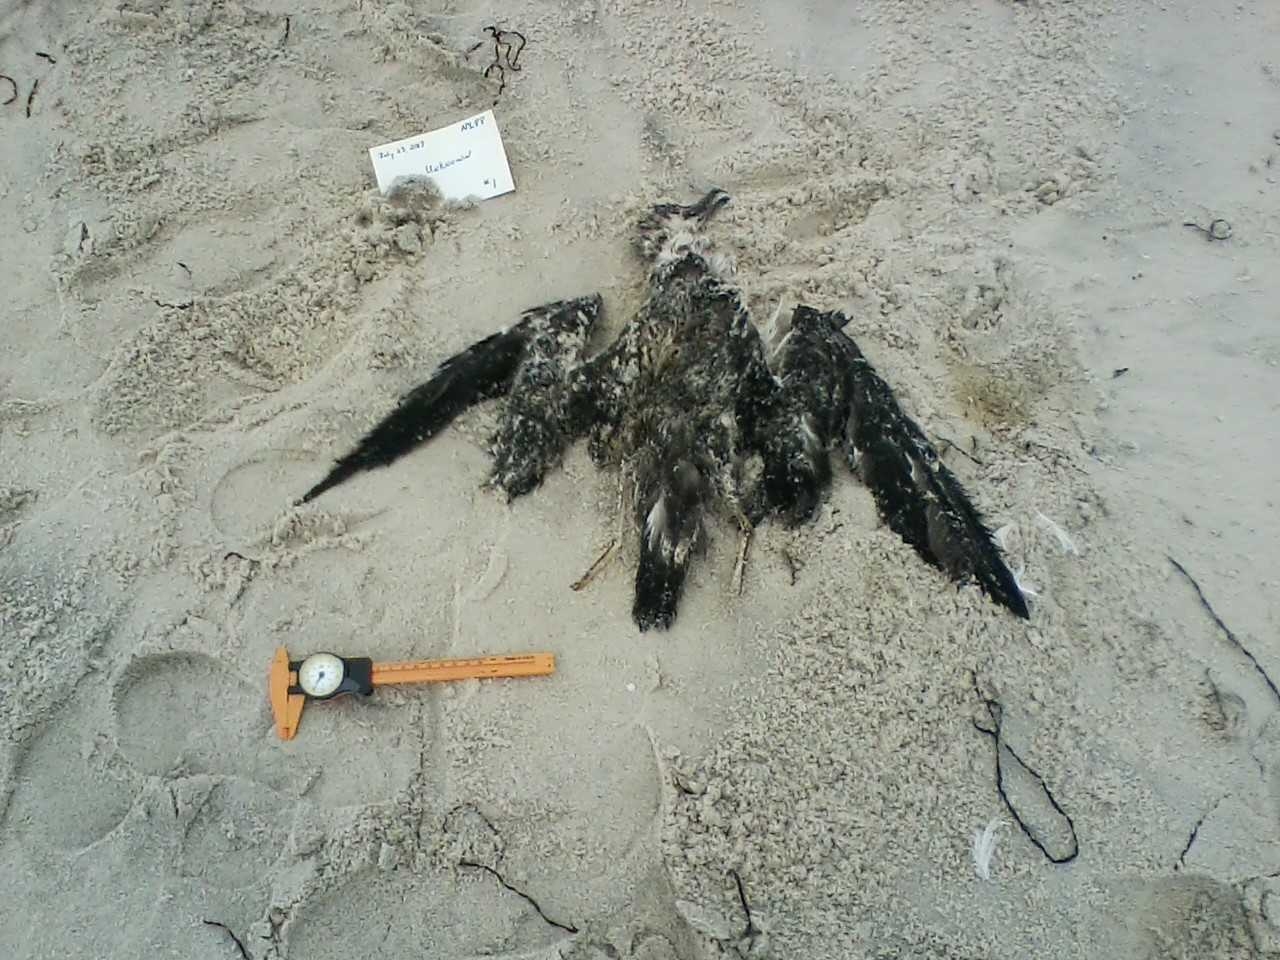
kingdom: Animalia
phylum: Chordata
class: Aves
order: Charadriiformes
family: Charadriidae
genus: Charadrius
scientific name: Charadrius melodus
